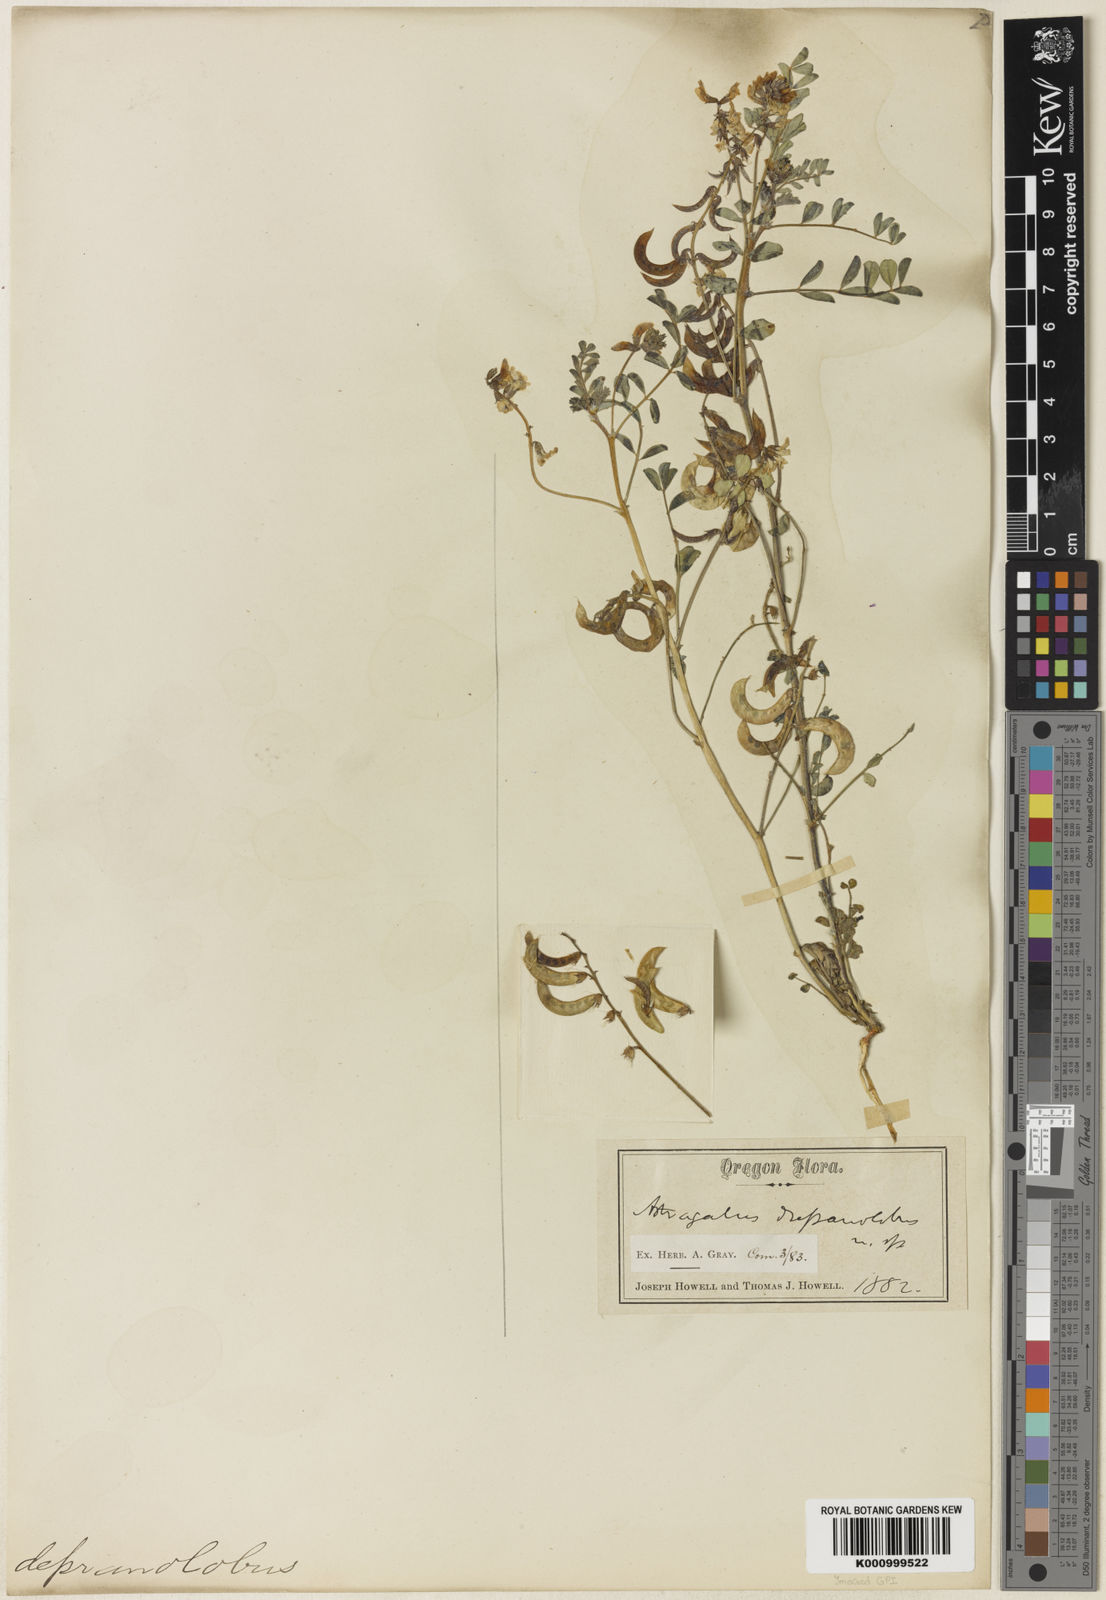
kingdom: Plantae
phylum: Tracheophyta
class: Magnoliopsida
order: Fabales
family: Fabaceae
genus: Astragalus
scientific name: Astragalus diaphanus
